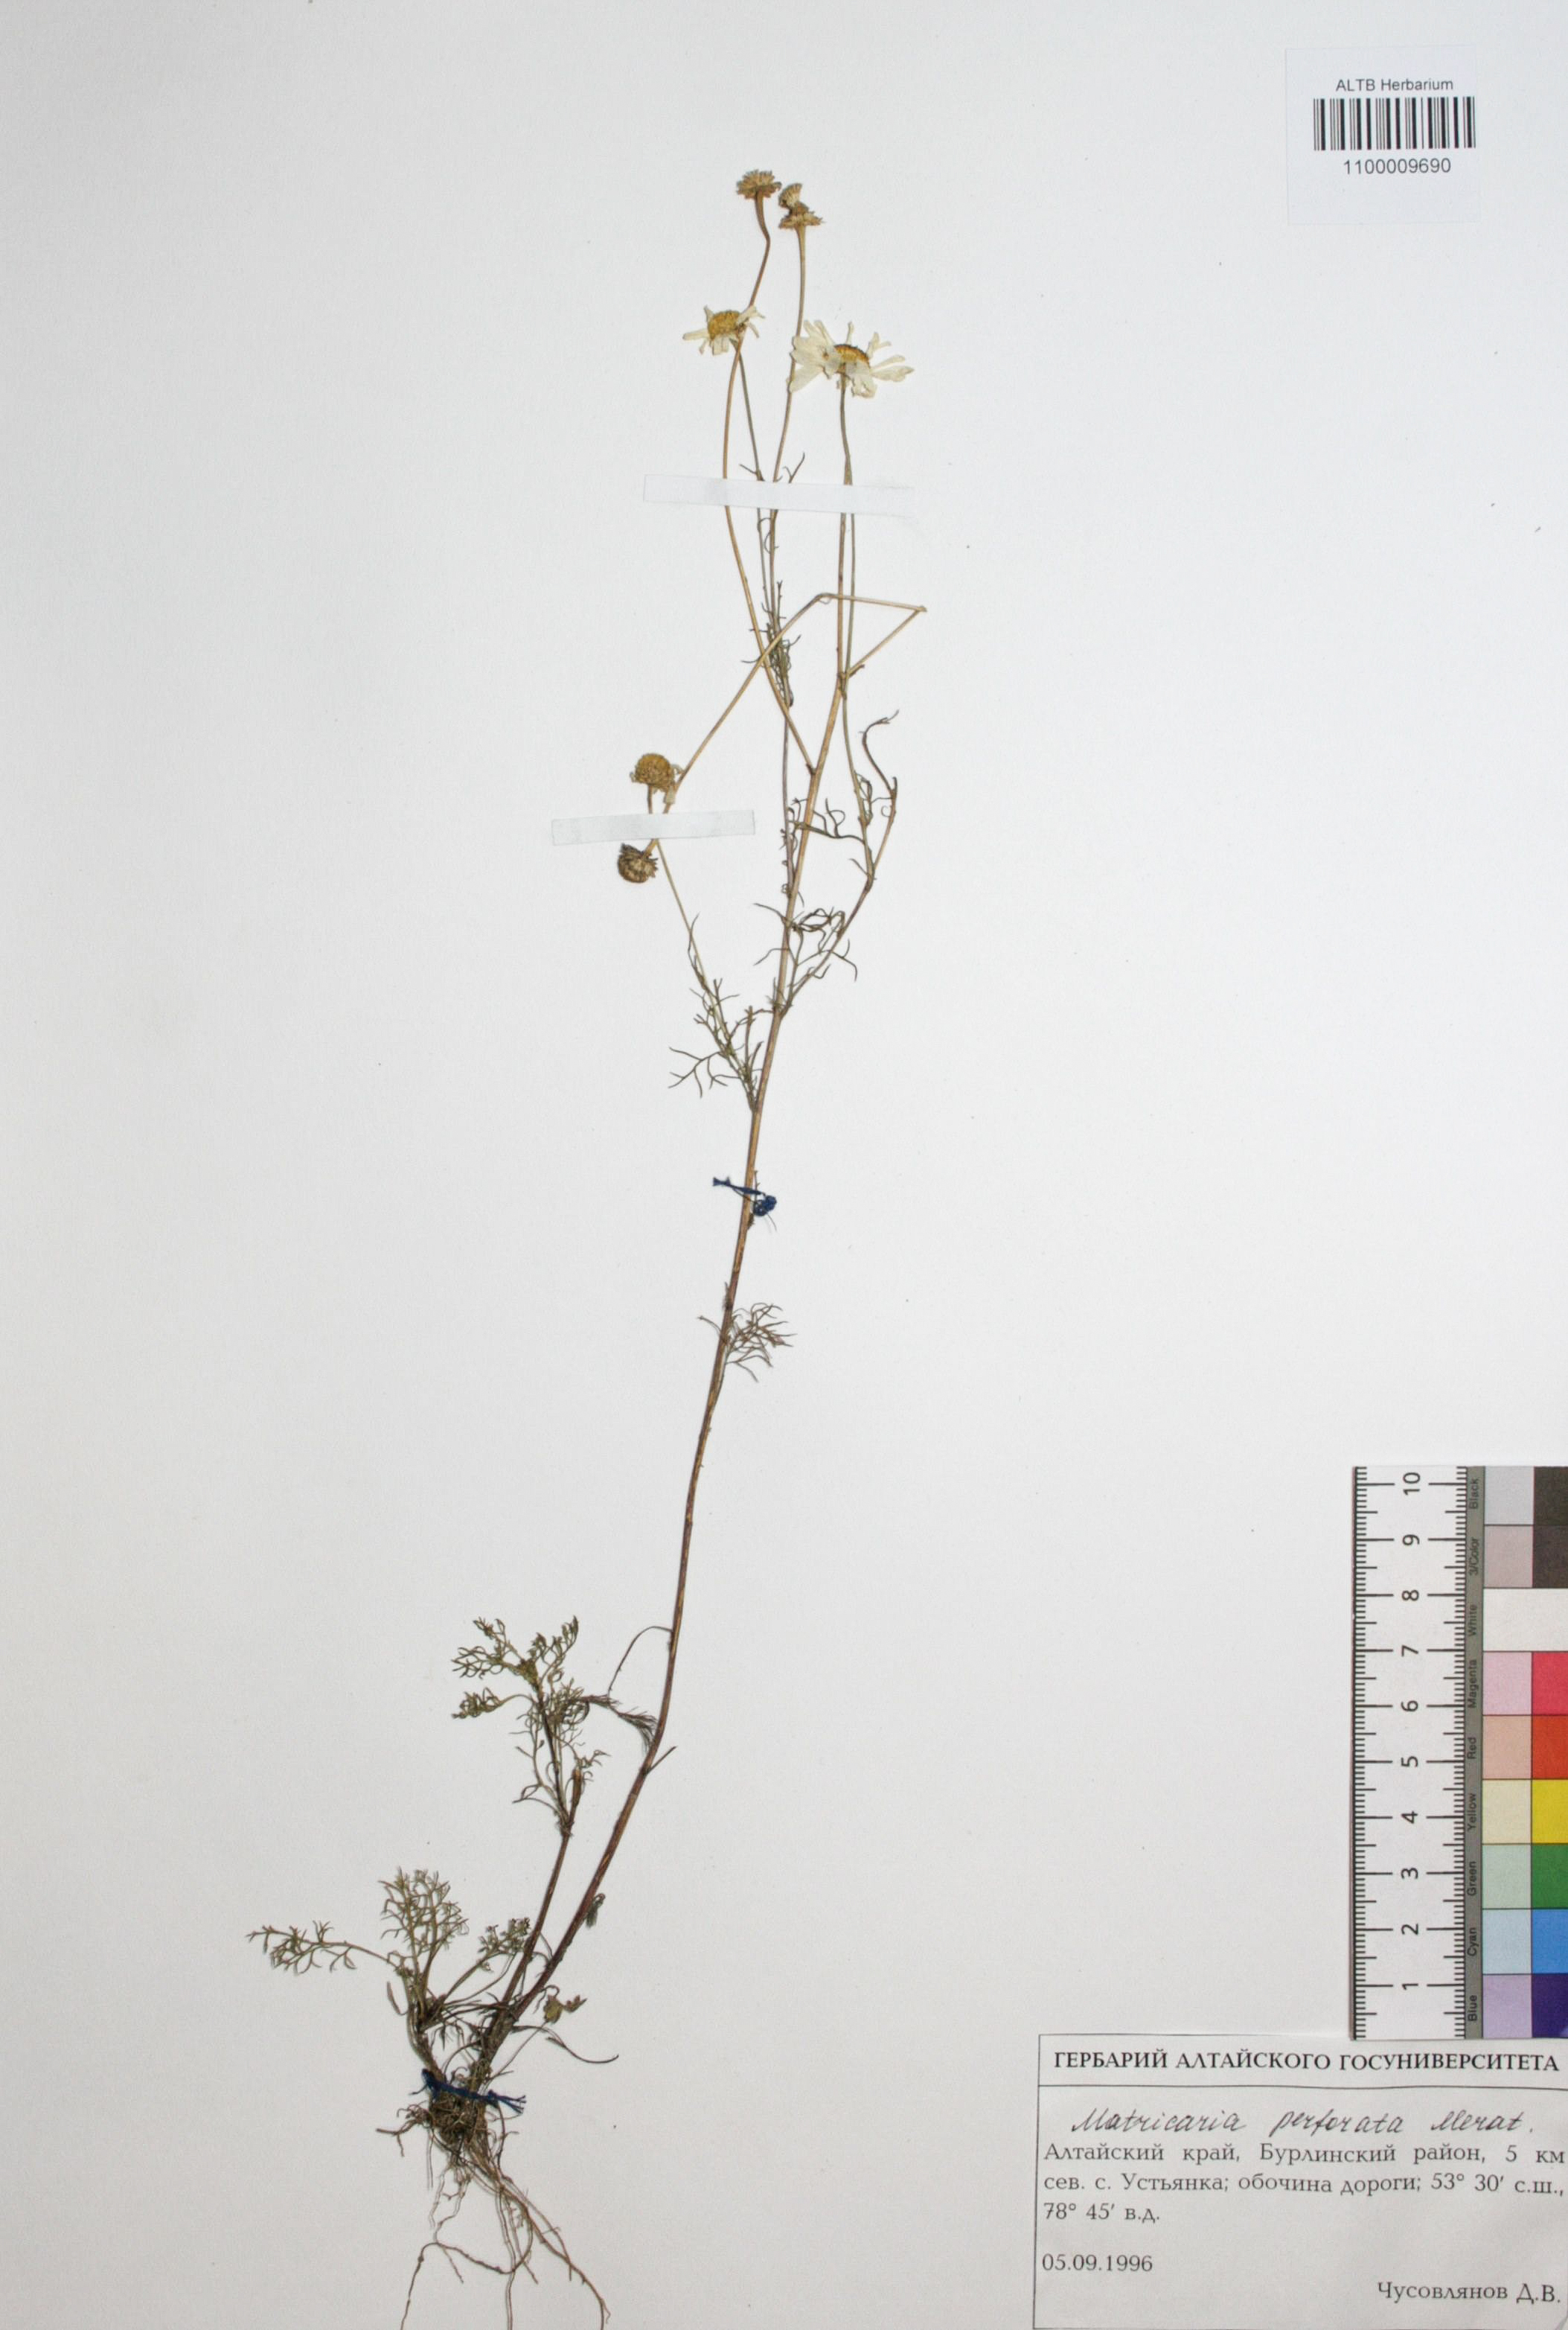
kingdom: Plantae
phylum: Tracheophyta
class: Magnoliopsida
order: Asterales
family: Asteraceae
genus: Tripleurospermum
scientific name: Tripleurospermum inodorum
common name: Scentless mayweed
